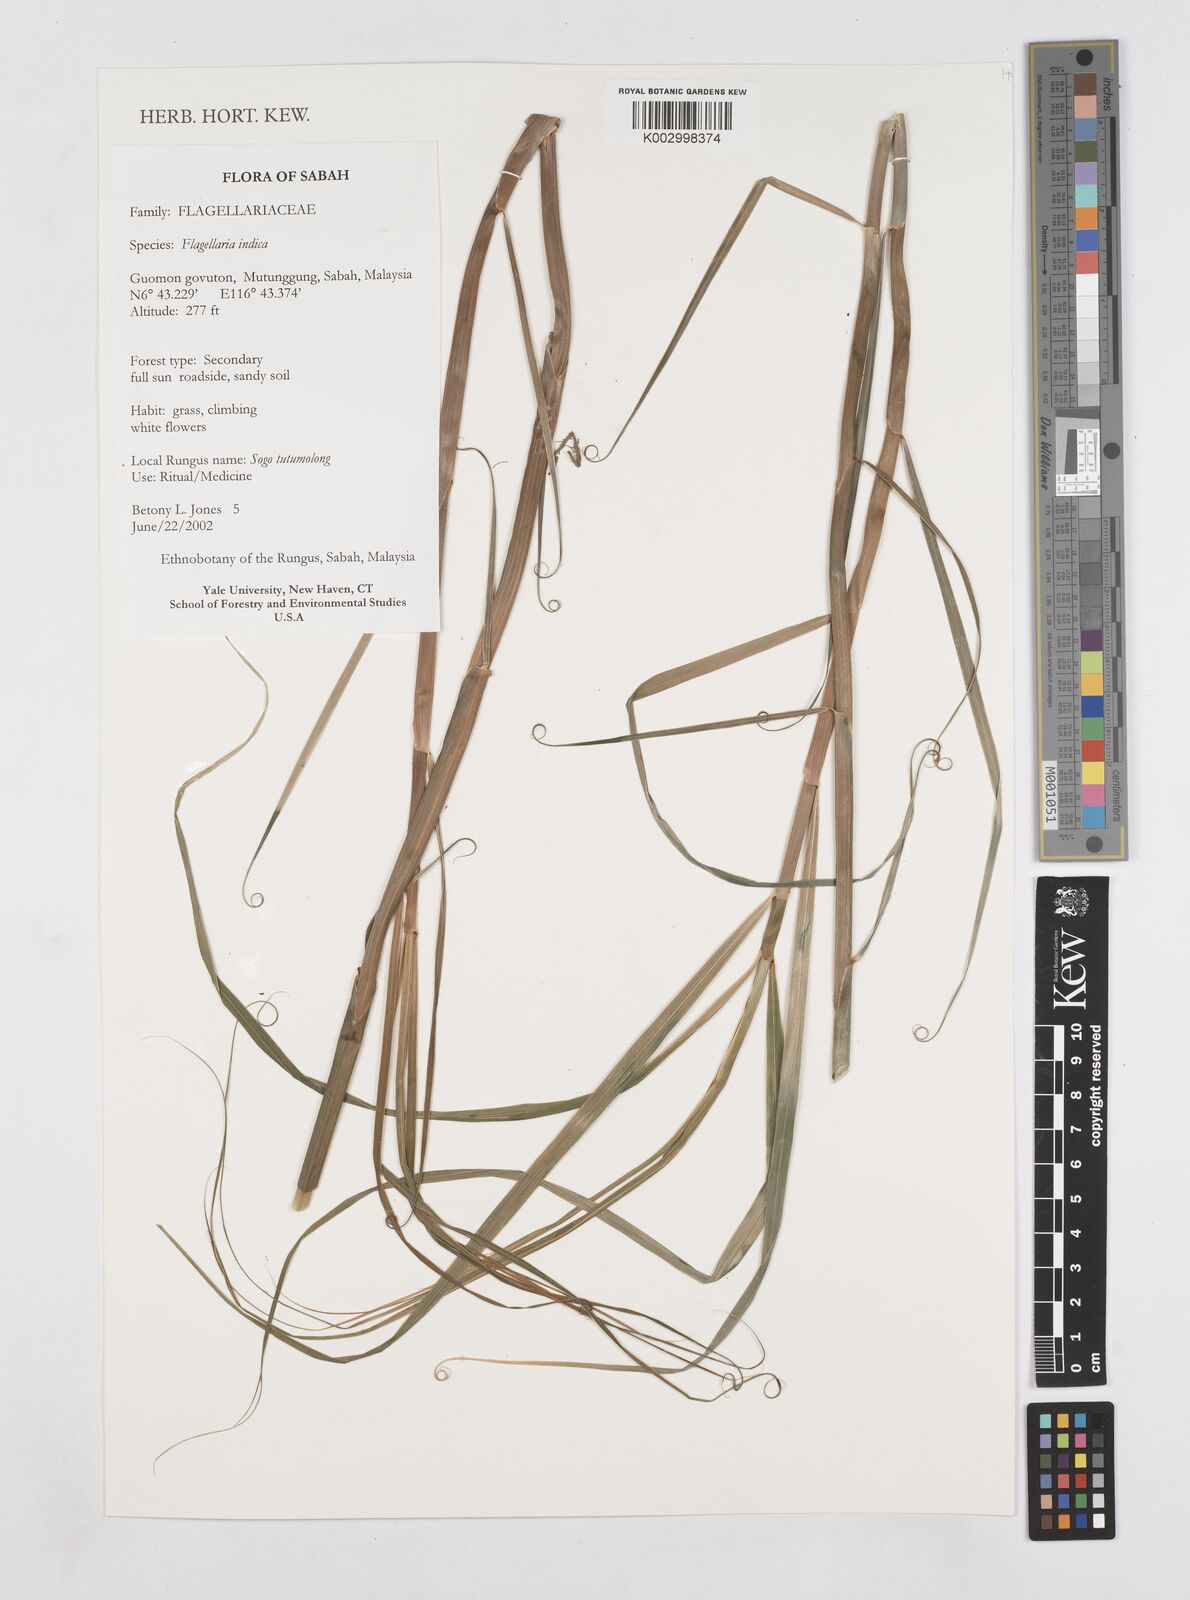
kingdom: Plantae
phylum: Tracheophyta
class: Liliopsida
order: Poales
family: Flagellariaceae
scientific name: Flagellariaceae
